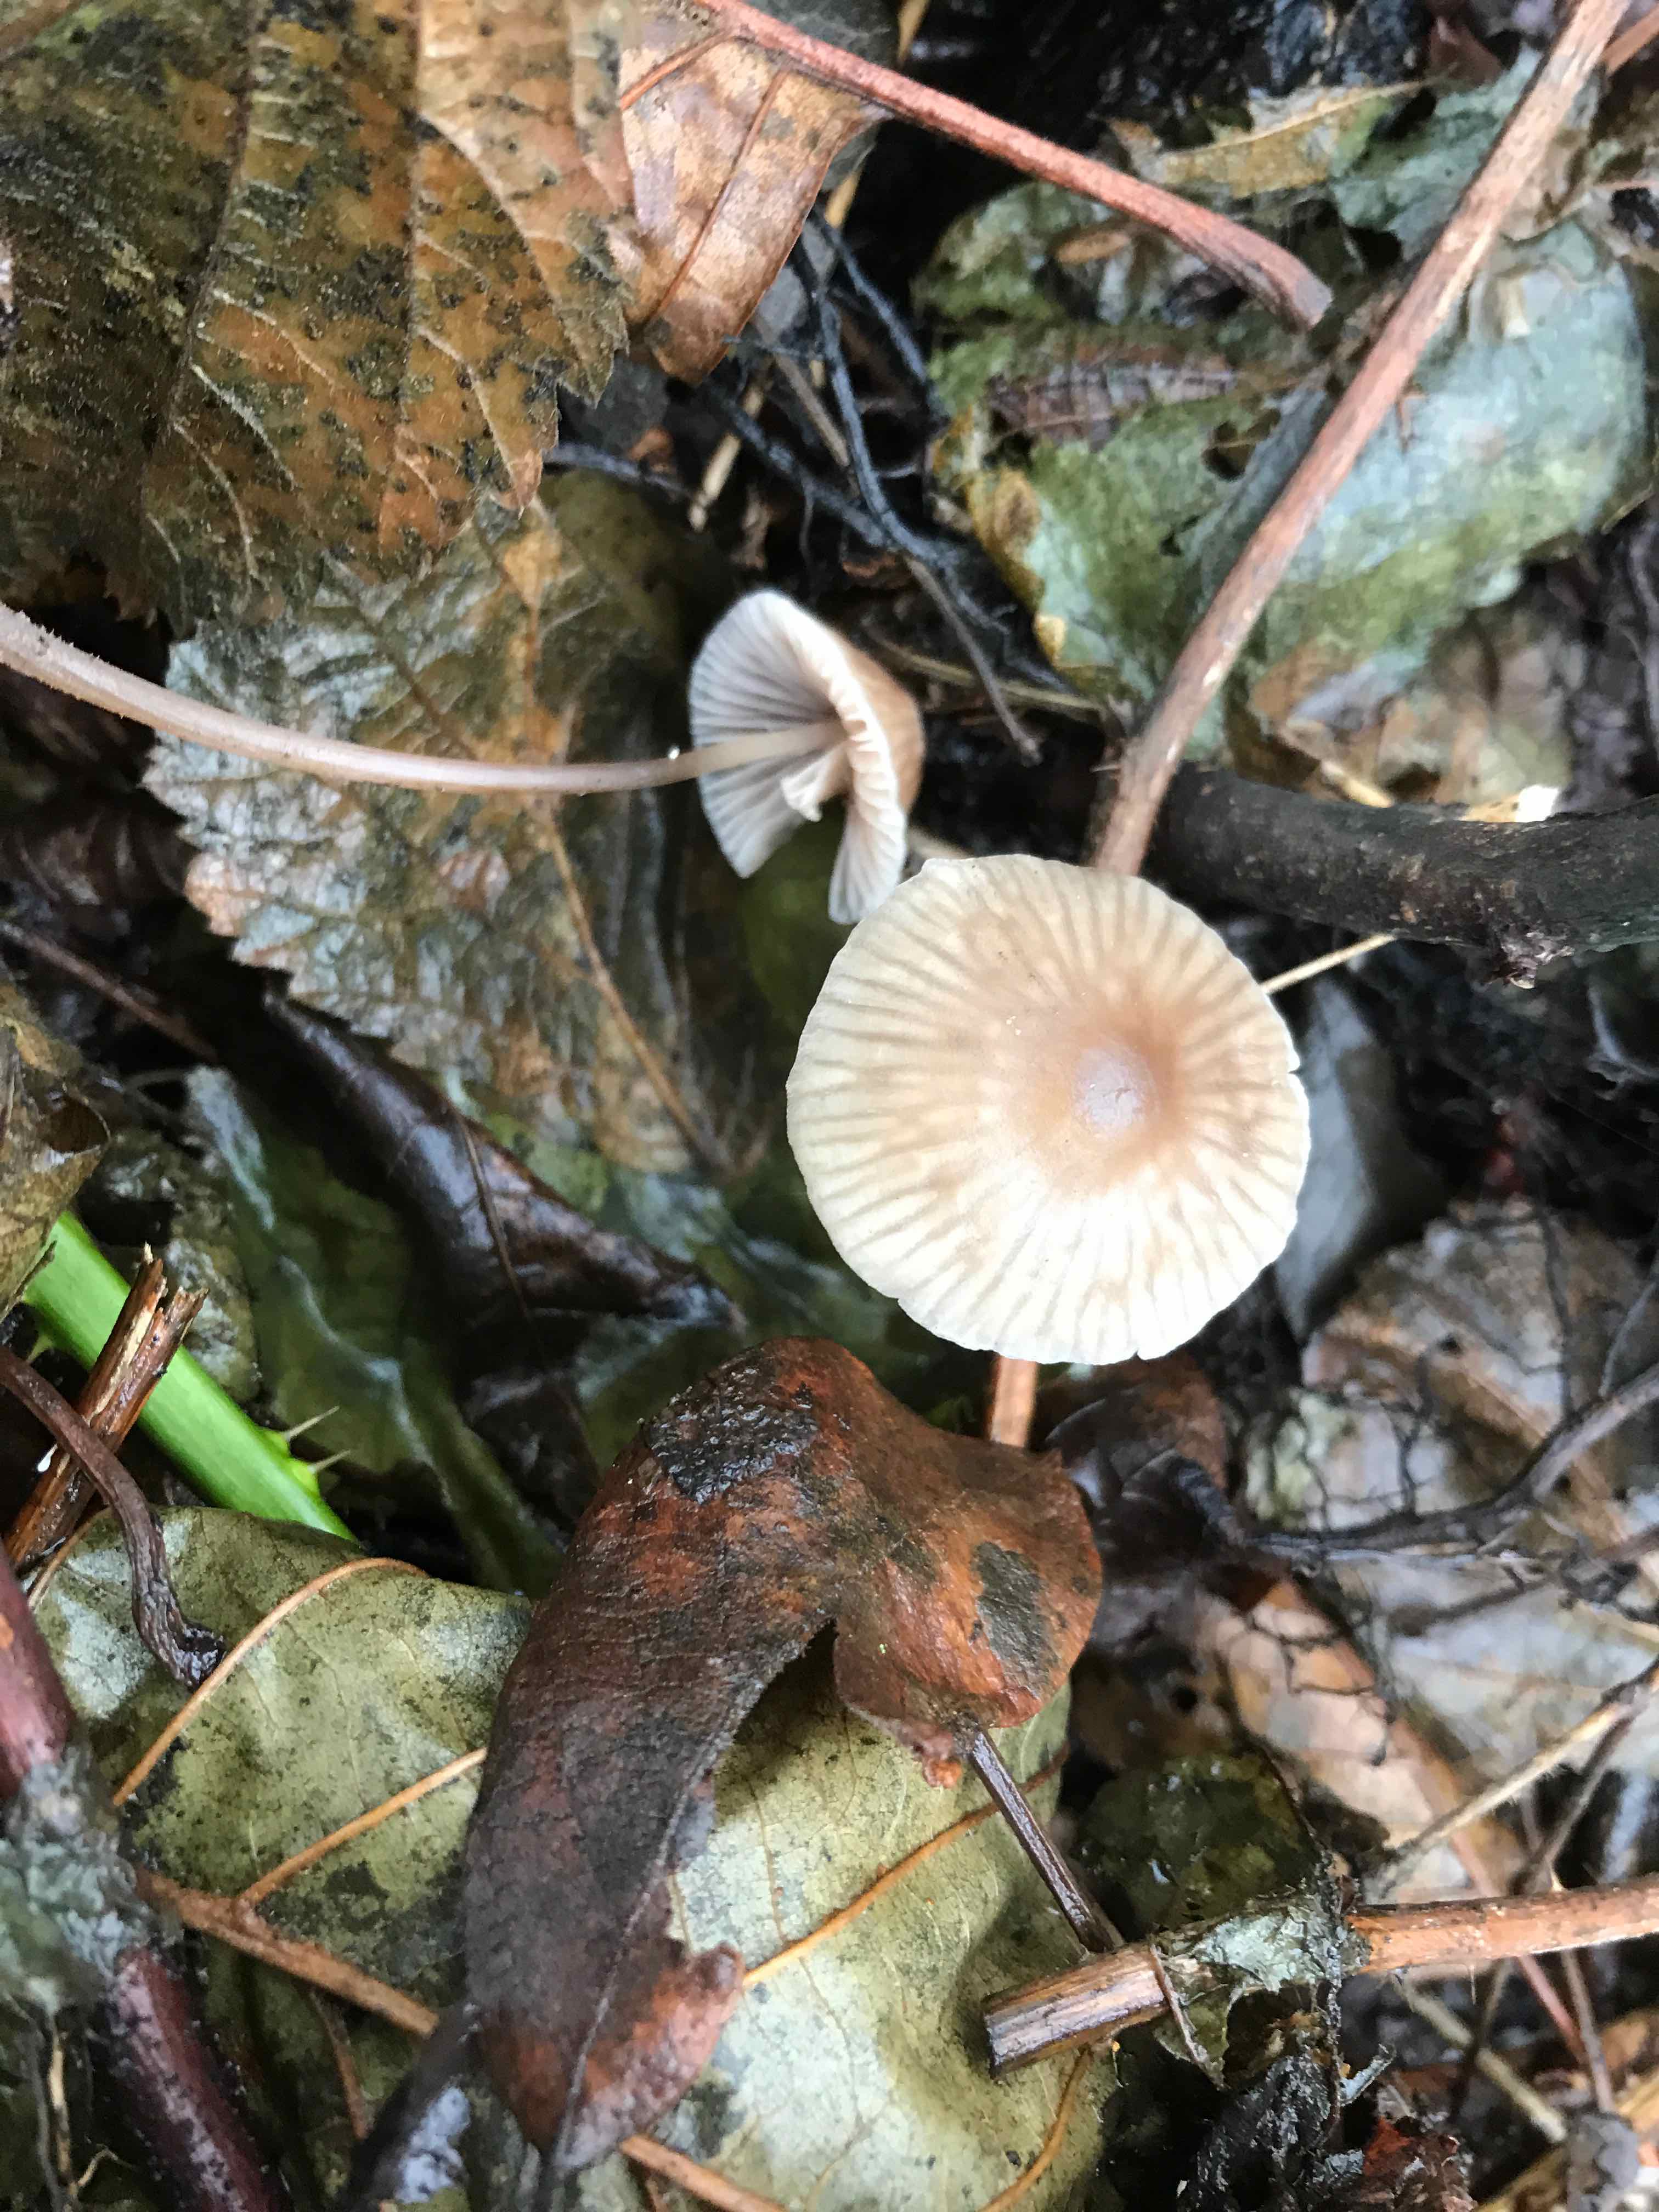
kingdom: Fungi
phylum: Basidiomycota
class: Agaricomycetes
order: Agaricales
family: Mycenaceae
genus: Mycena
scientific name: Mycena
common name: huesvamp
